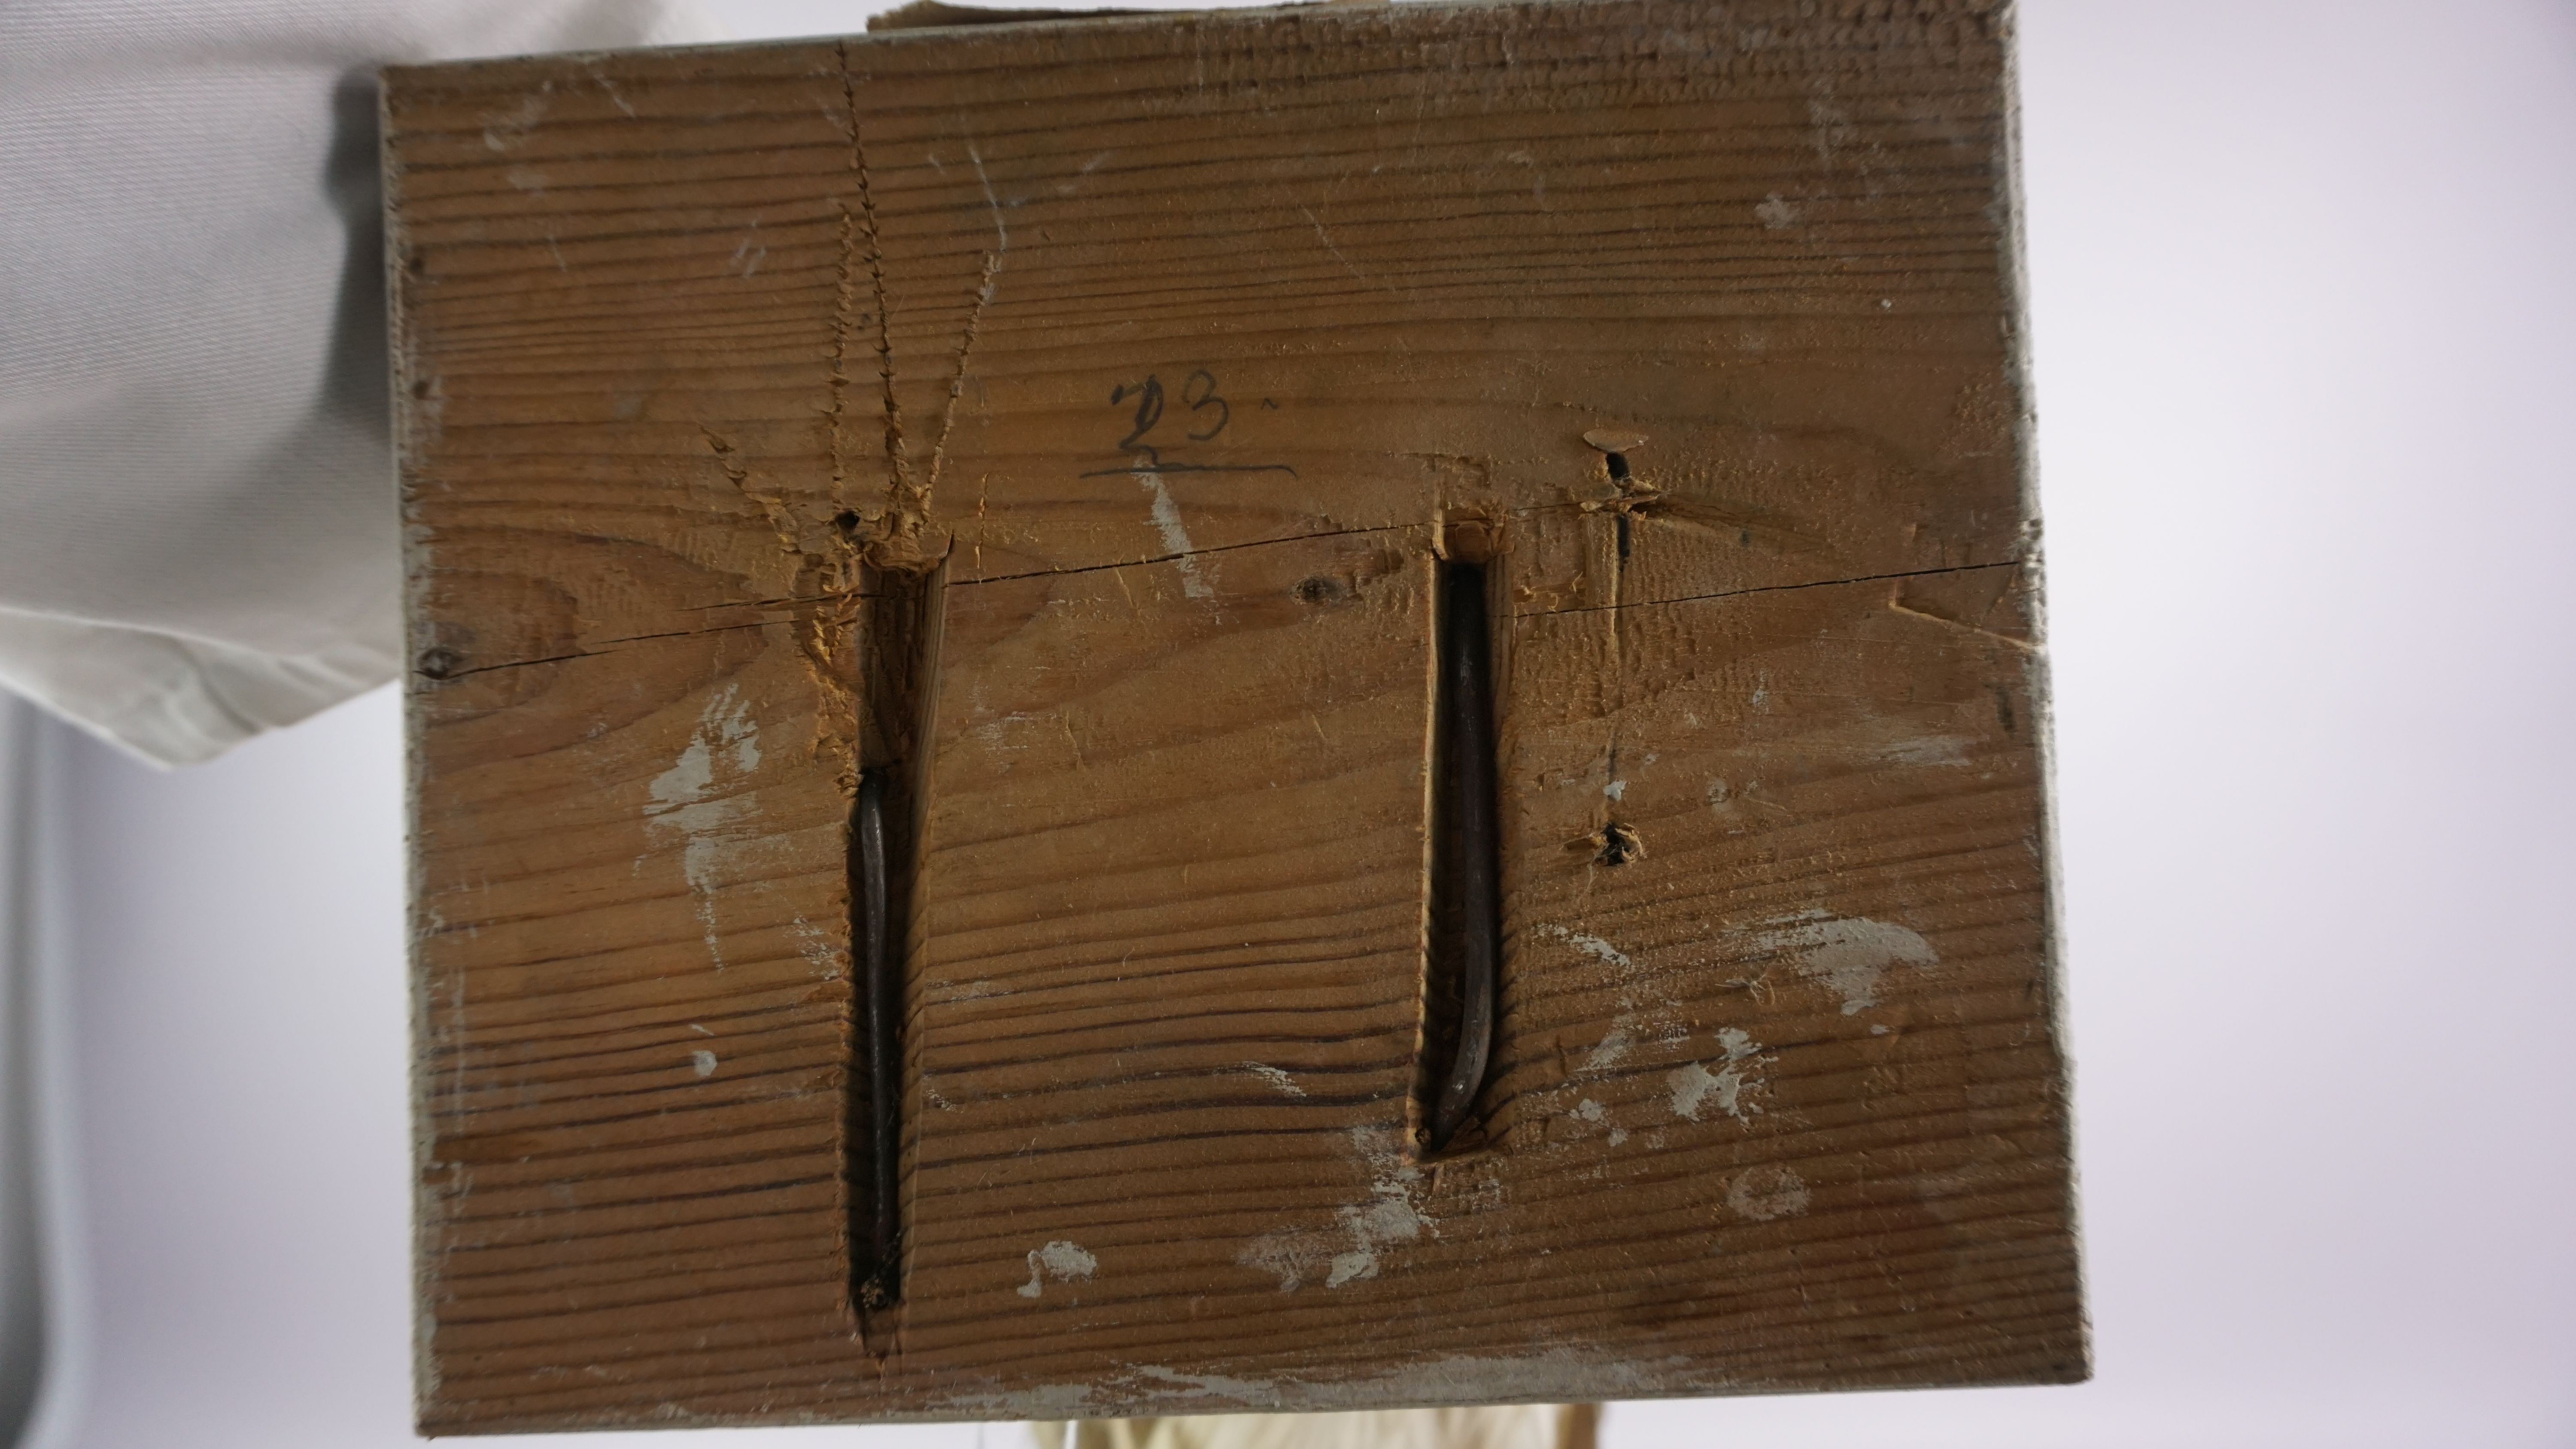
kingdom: Animalia
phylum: Chordata
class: Aves
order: Charadriiformes
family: Laridae
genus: Larus
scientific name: Larus argentatus
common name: Herring gull
